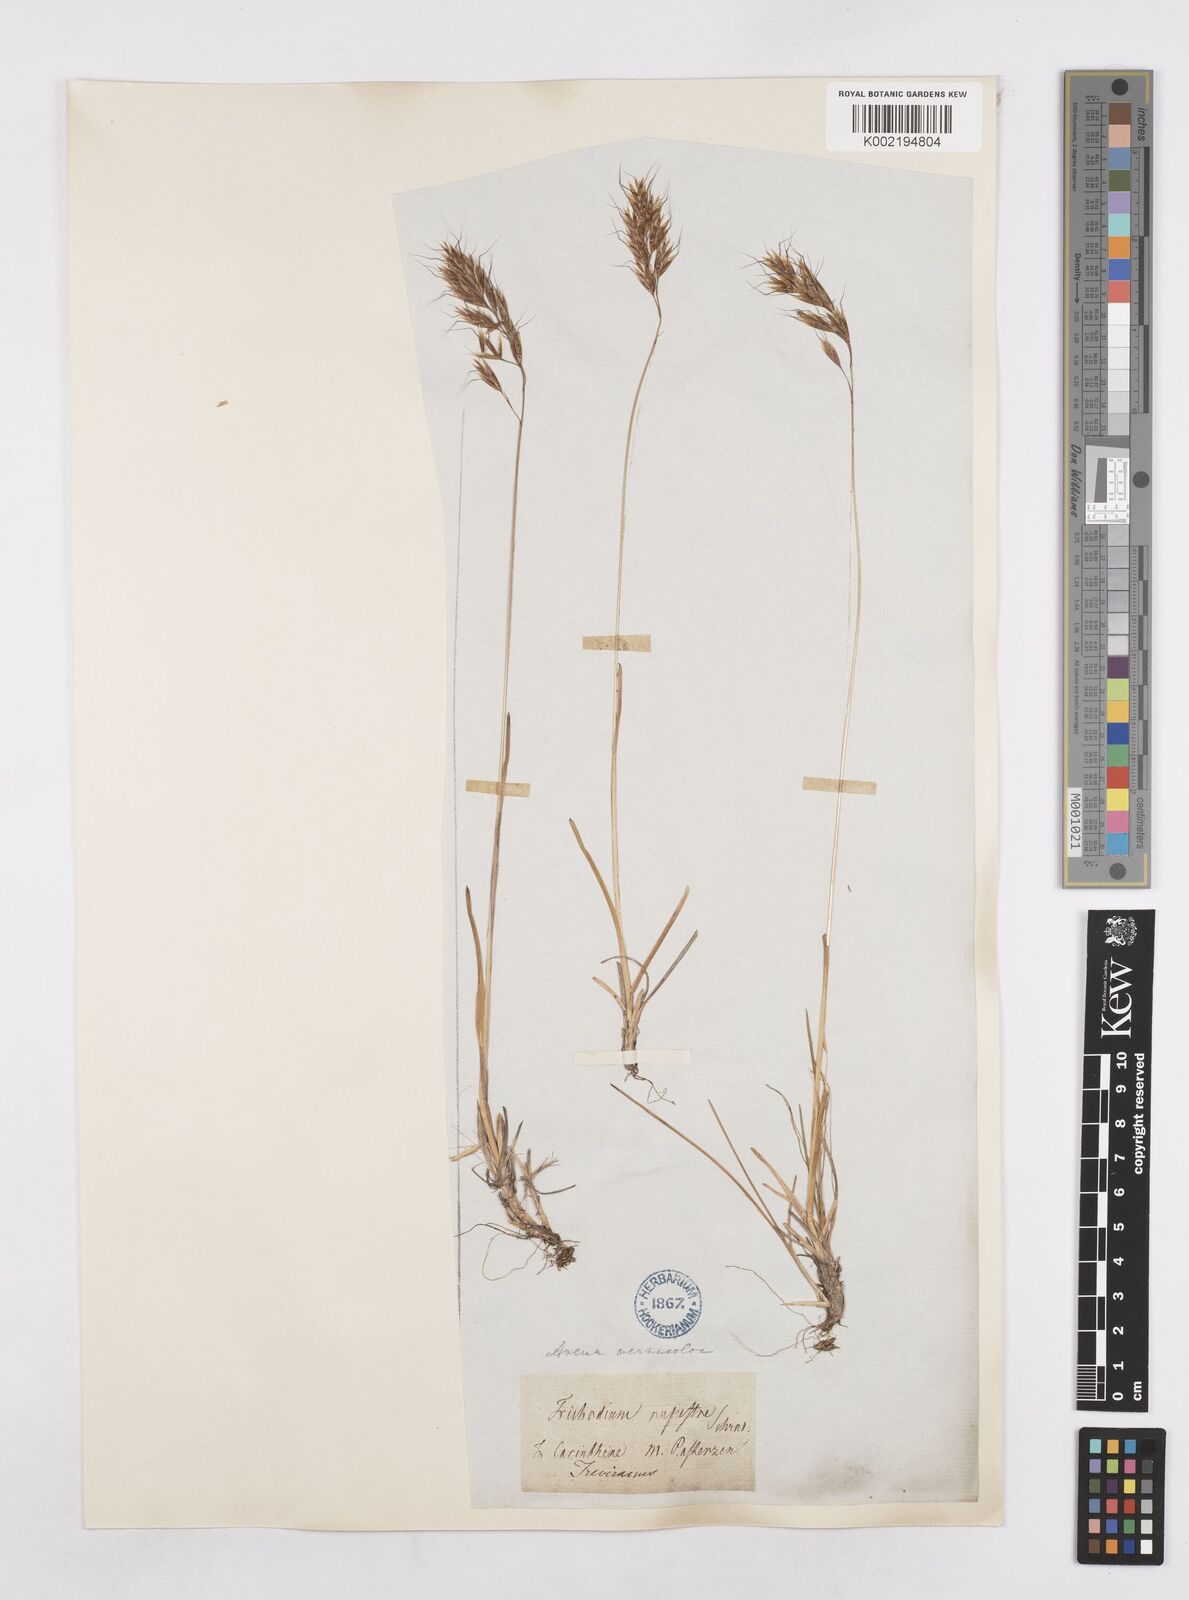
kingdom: Plantae
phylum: Tracheophyta
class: Liliopsida
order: Poales
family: Poaceae
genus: Helictochloa
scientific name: Helictochloa versicolor
